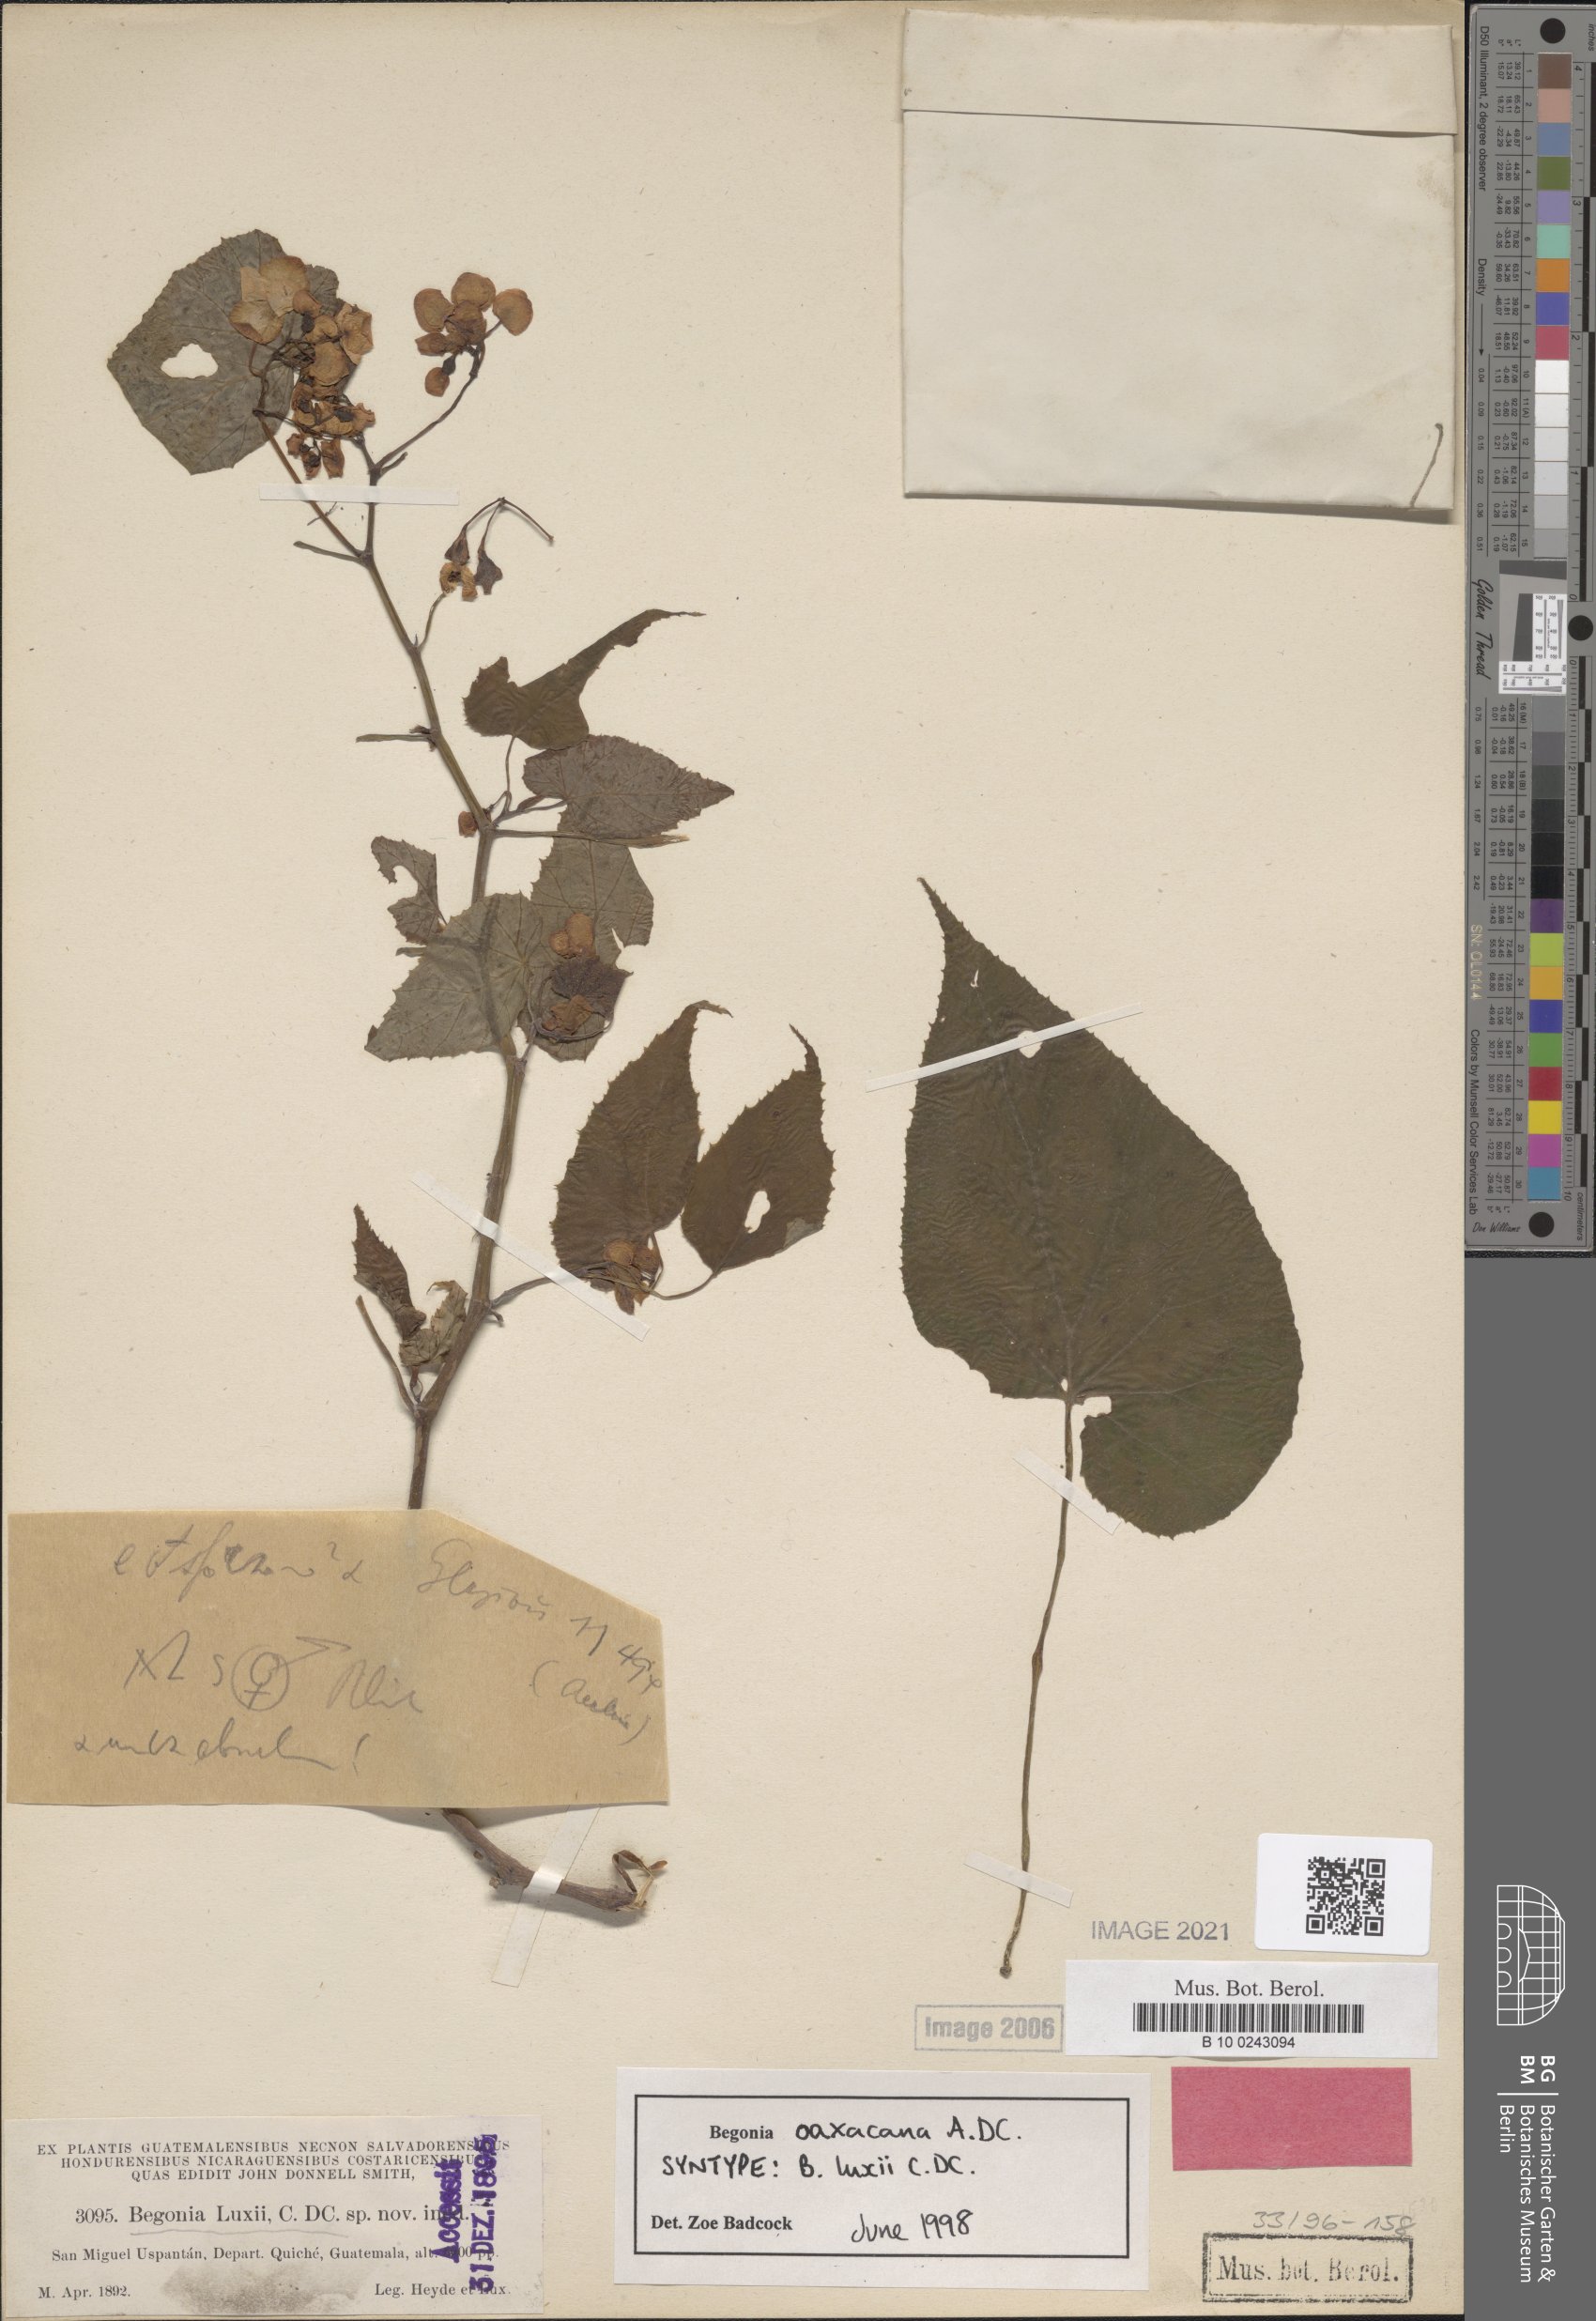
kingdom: Plantae
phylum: Tracheophyta
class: Magnoliopsida
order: Cucurbitales
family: Begoniaceae
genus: Begonia
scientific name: Begonia oaxacana
